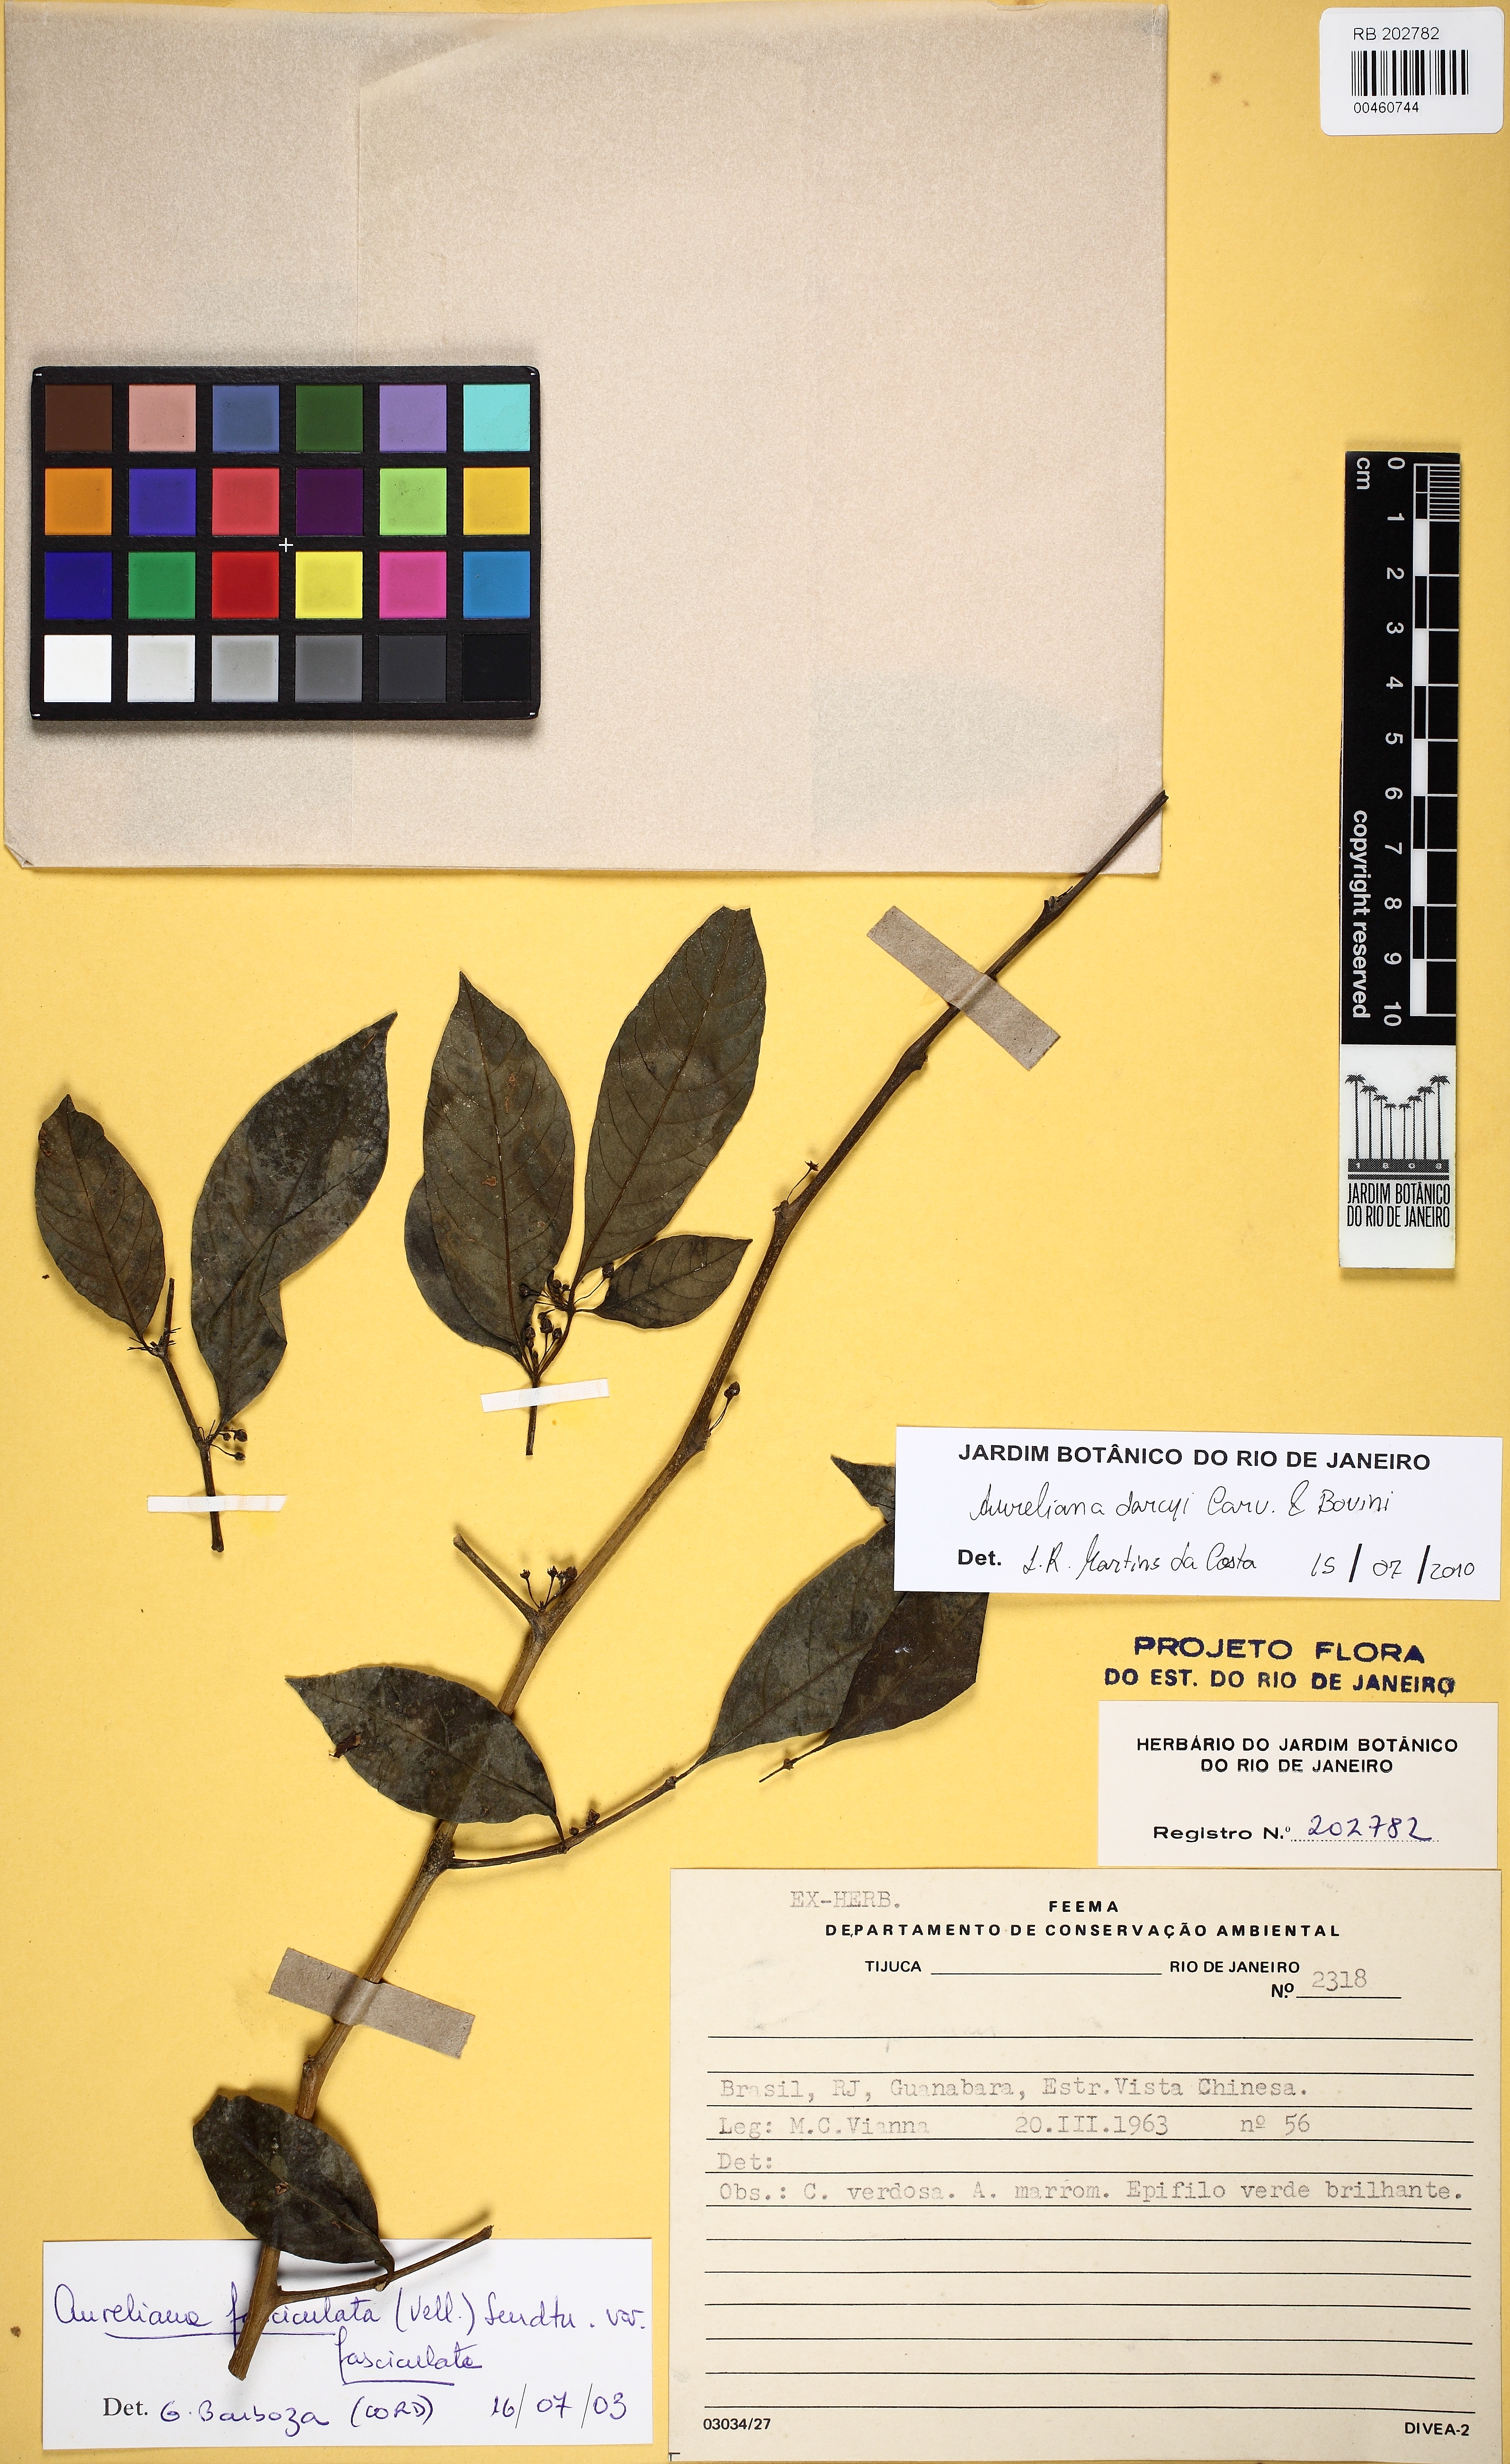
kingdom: Plantae
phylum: Tracheophyta
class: Magnoliopsida
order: Solanales
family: Solanaceae
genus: Athenaea
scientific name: Athenaea fasciculata
